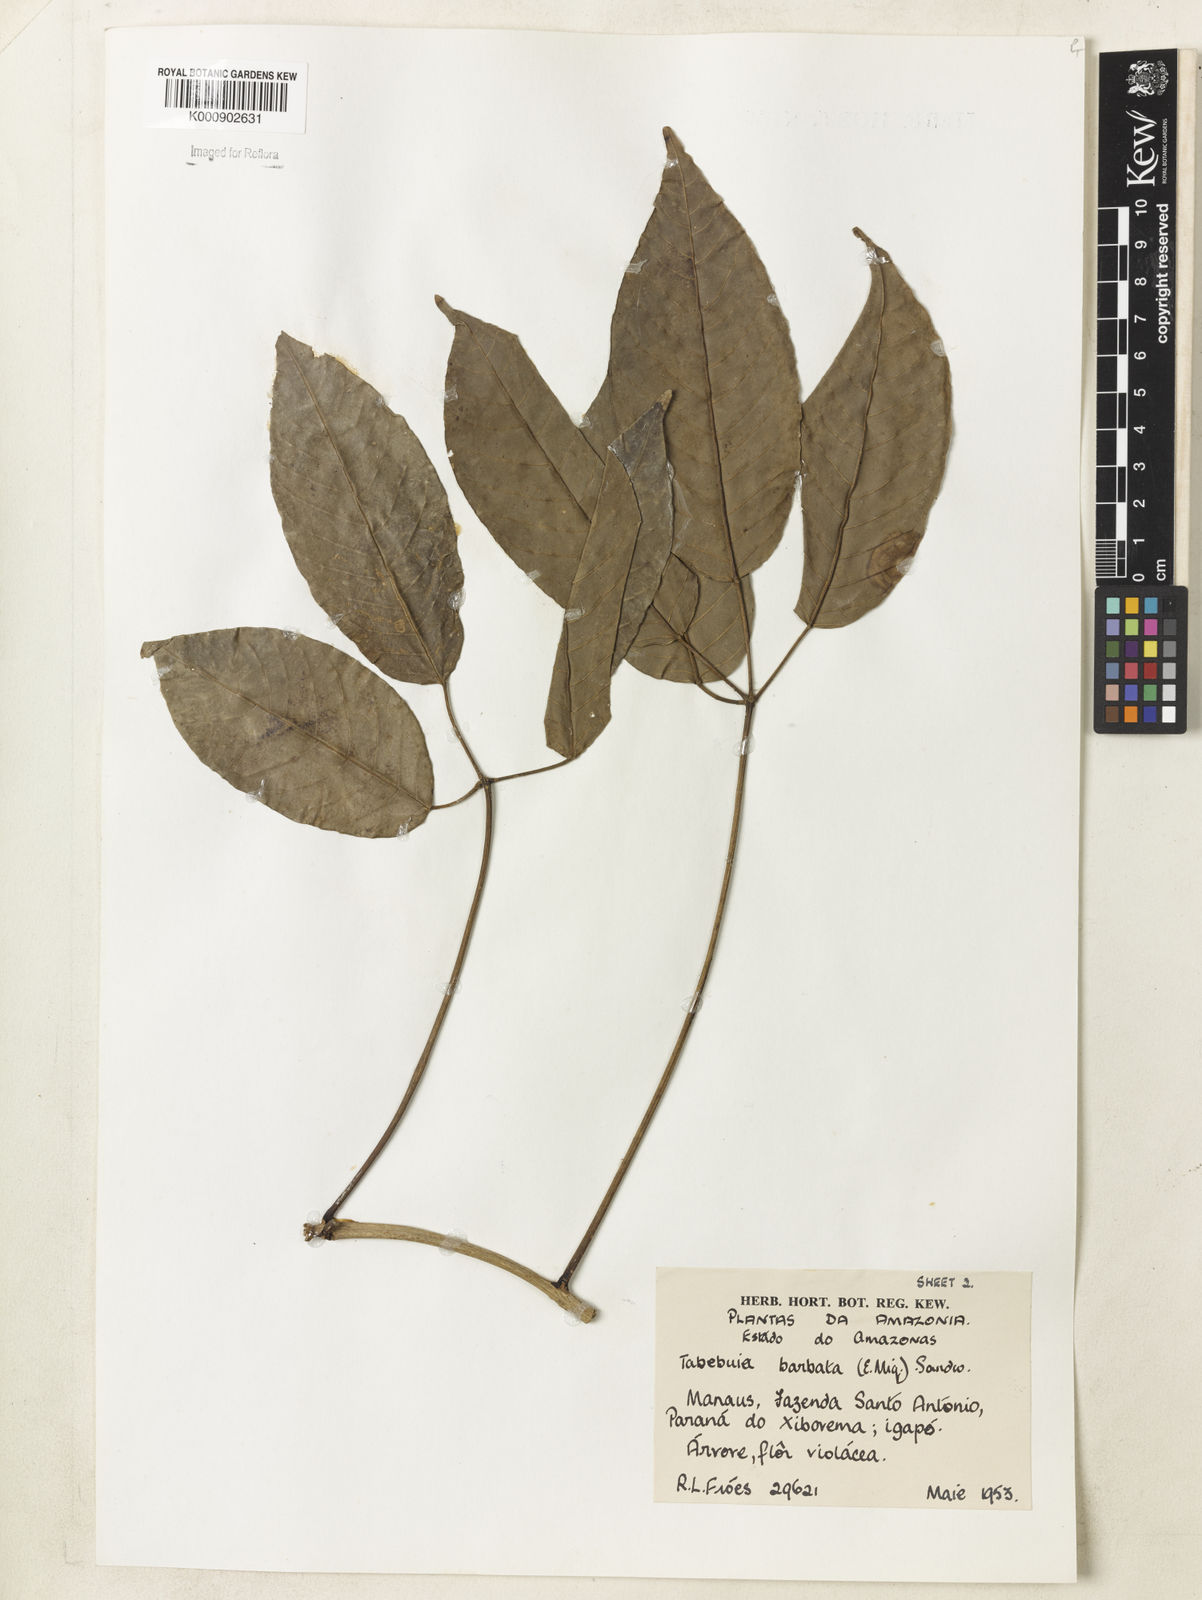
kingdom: Plantae
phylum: Tracheophyta
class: Magnoliopsida
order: Lamiales
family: Bignoniaceae
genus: Handroanthus
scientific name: Handroanthus barbatus
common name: Trumpet trees
